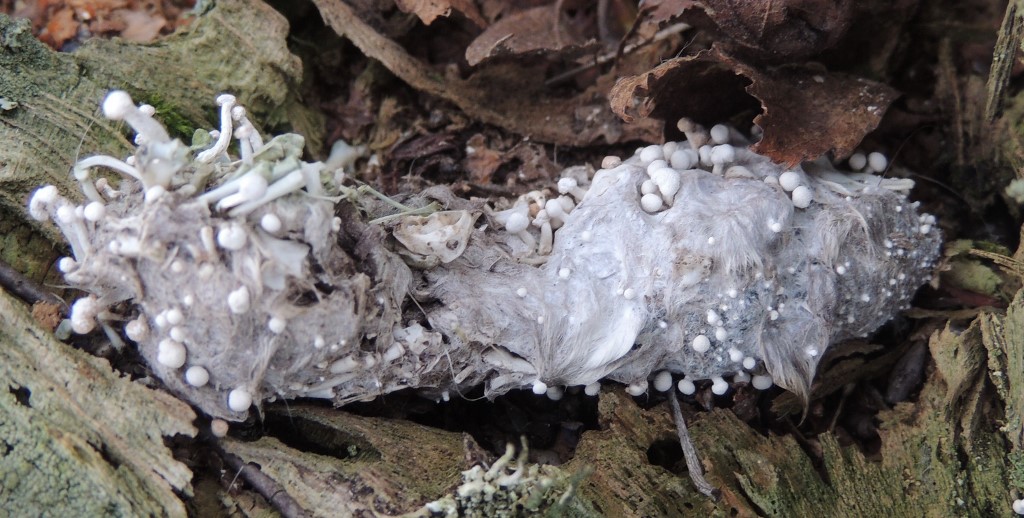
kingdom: Fungi
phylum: Ascomycota
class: Eurotiomycetes
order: Onygenales
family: Onygenaceae
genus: Onygena
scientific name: Onygena corvina
